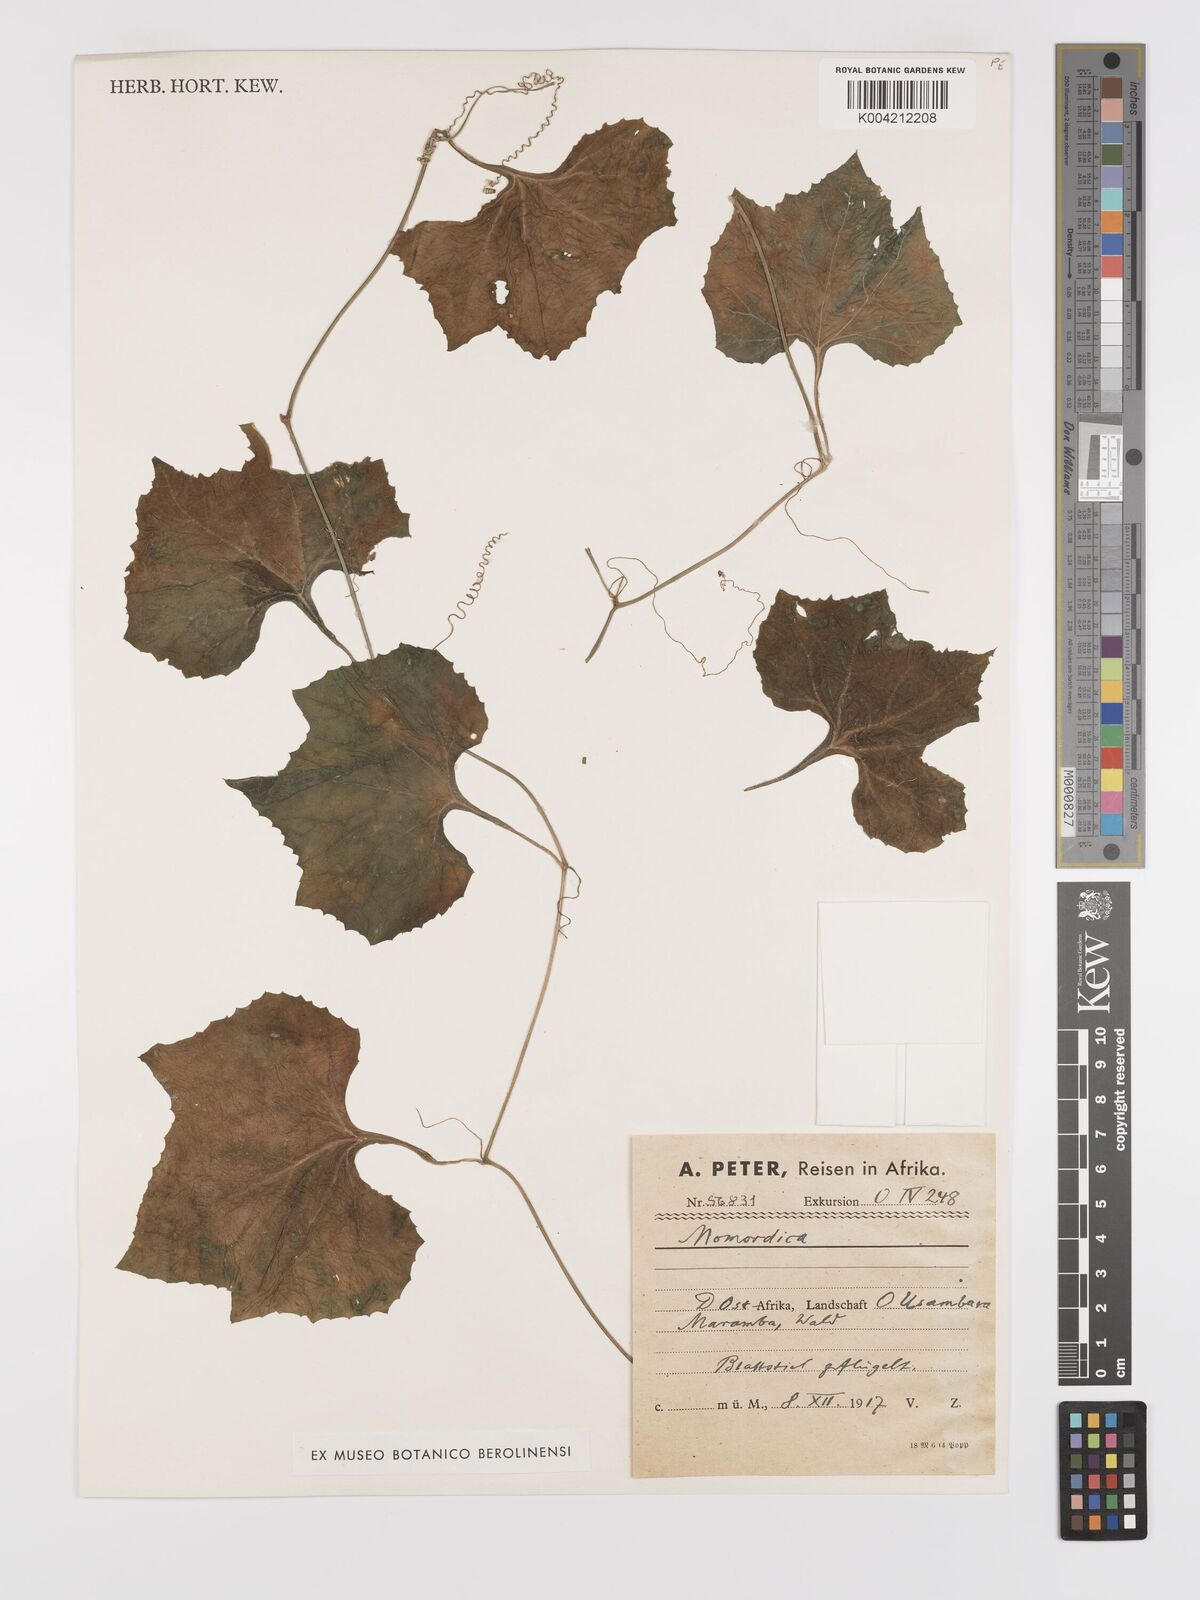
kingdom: Plantae
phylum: Tracheophyta
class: Magnoliopsida
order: Cucurbitales
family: Cucurbitaceae
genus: Kedrostis
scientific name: Kedrostis abdallae
